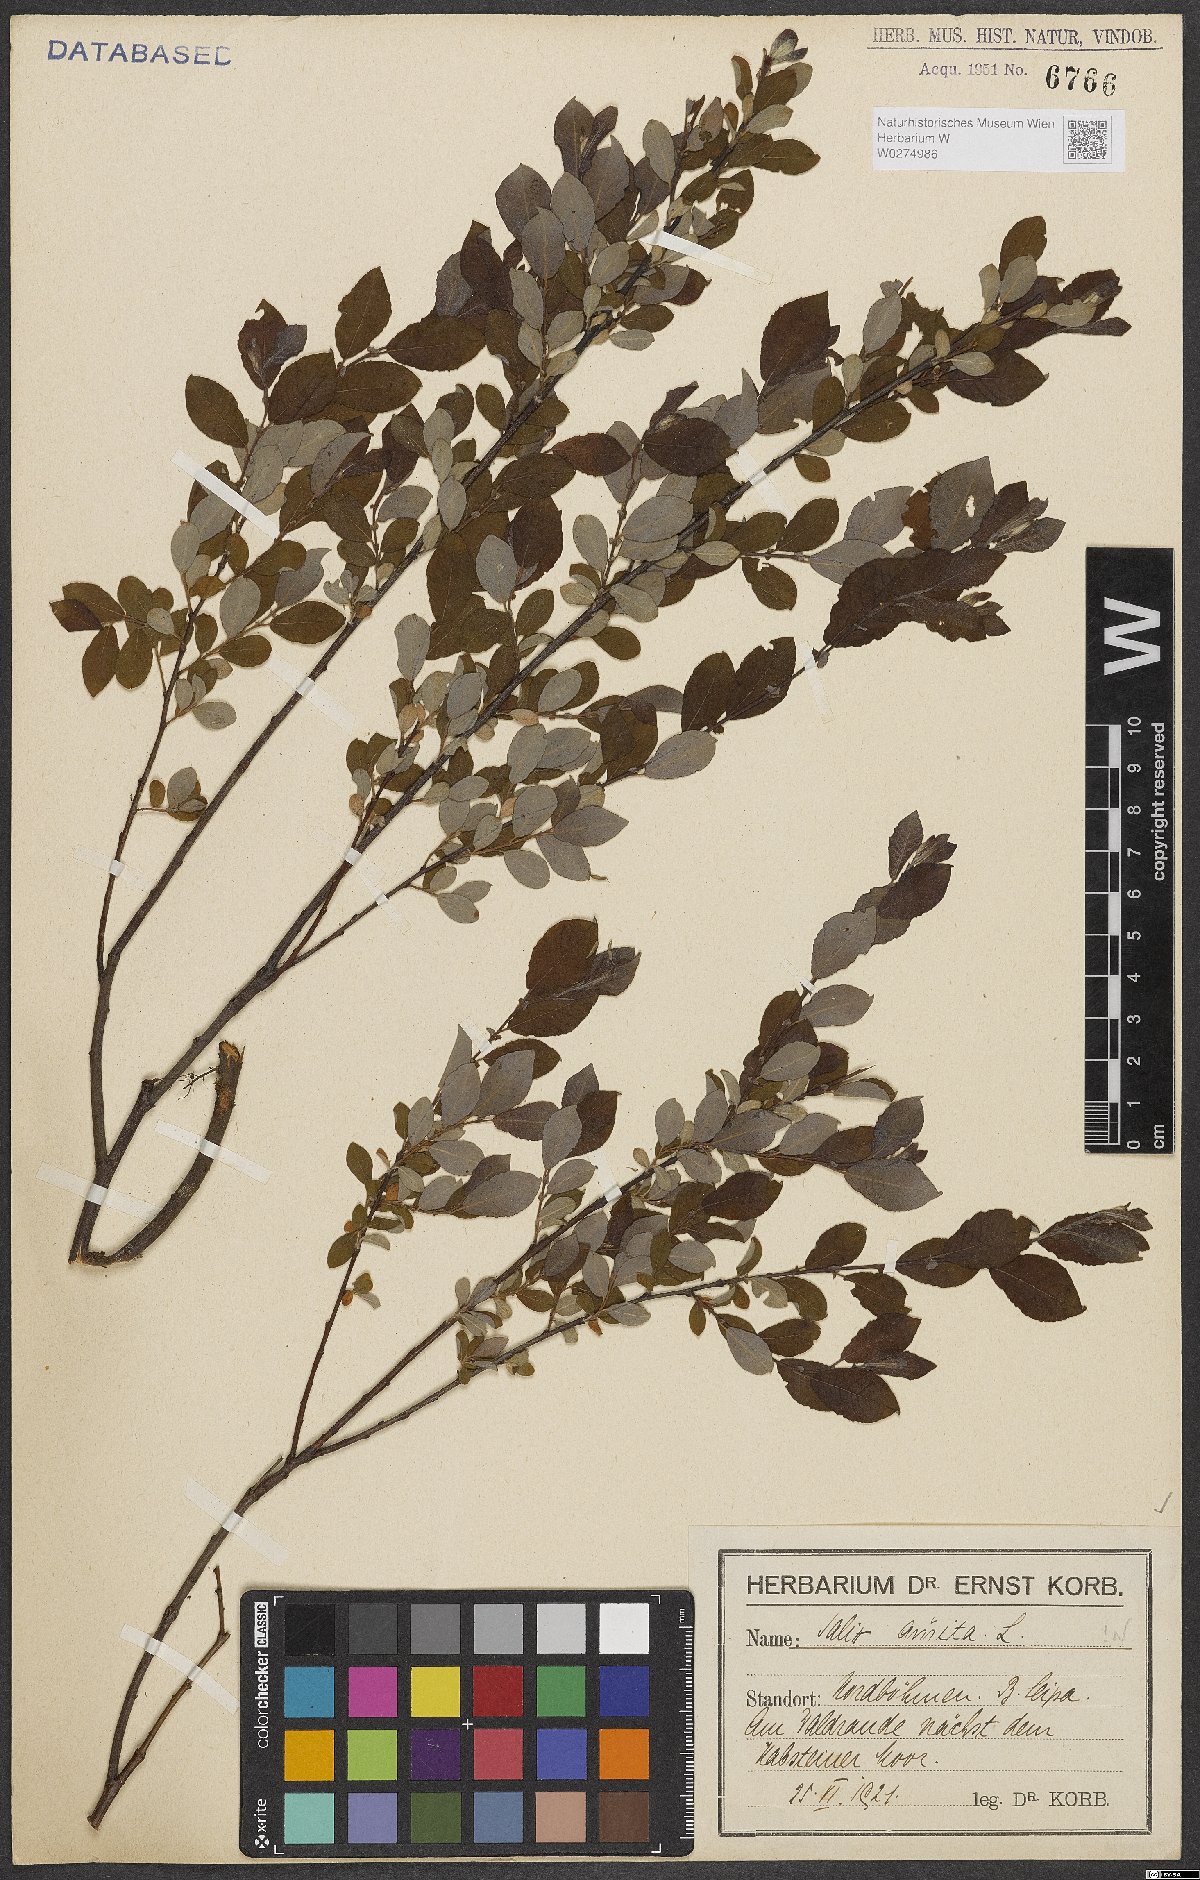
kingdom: Plantae
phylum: Tracheophyta
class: Magnoliopsida
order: Malpighiales
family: Salicaceae
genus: Salix
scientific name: Salix aurita
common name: Eared willow
